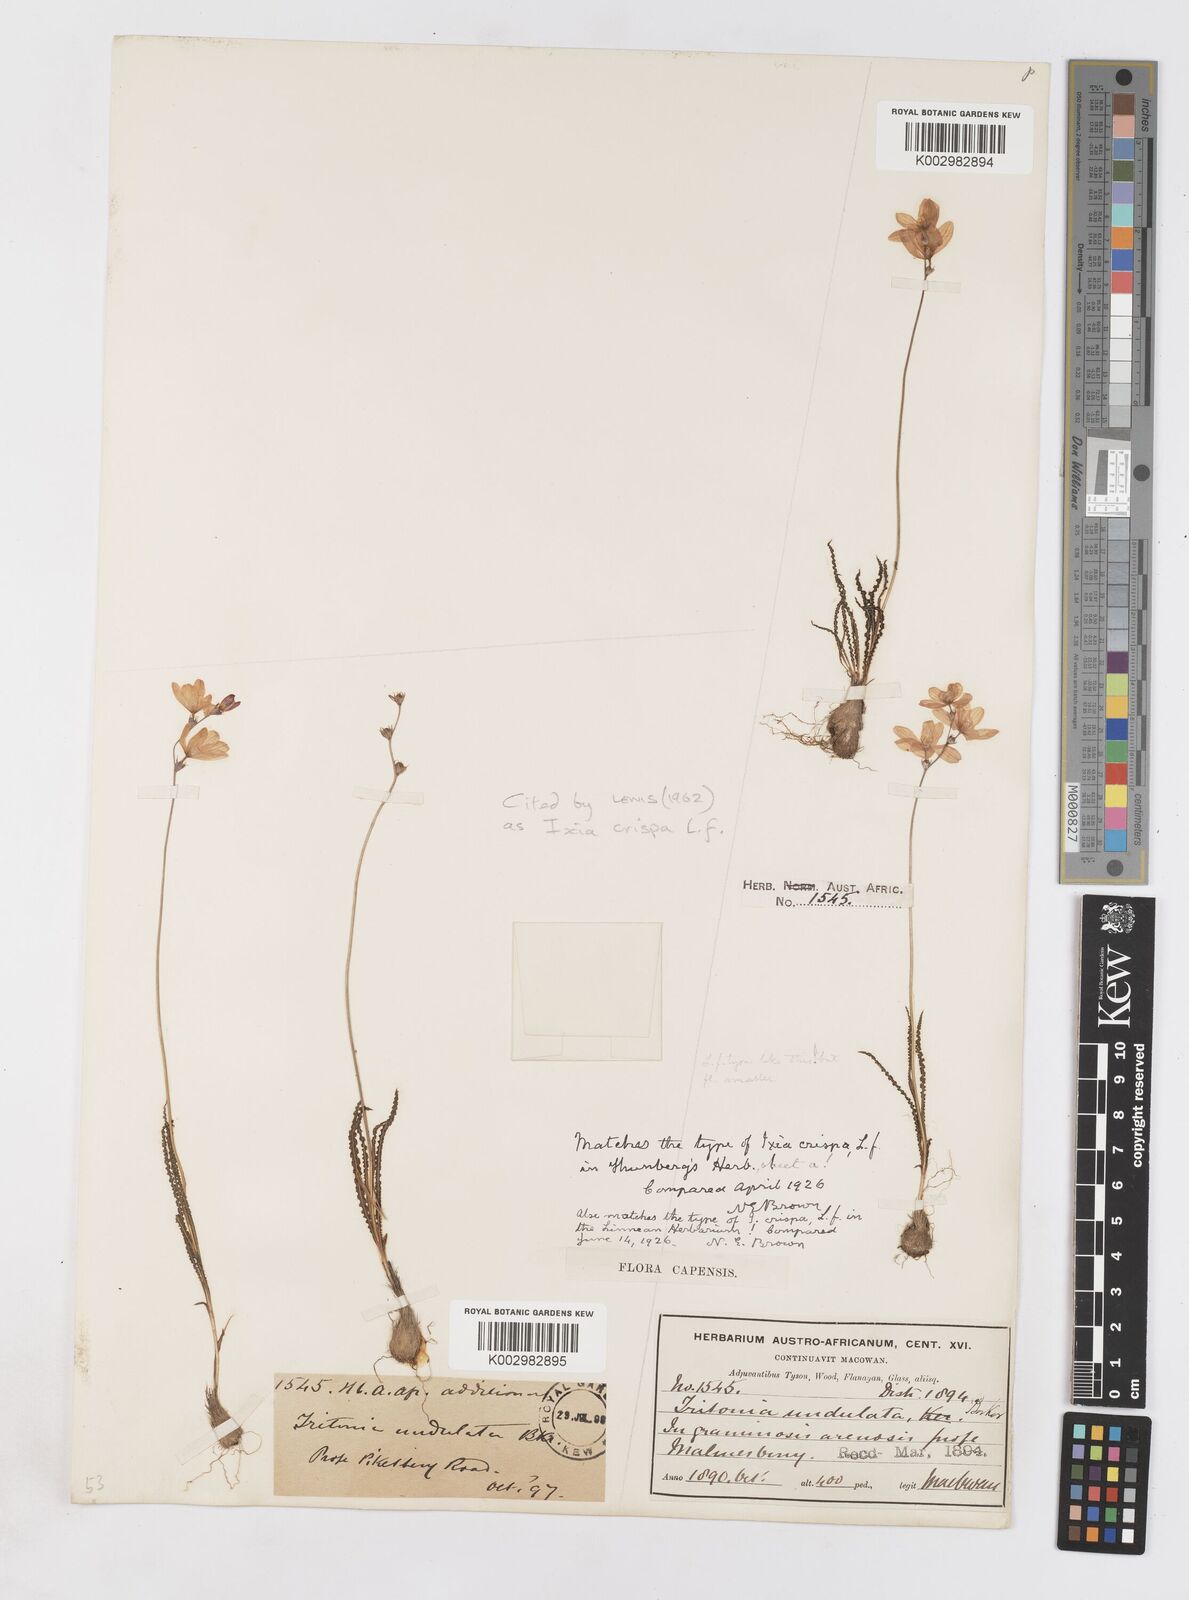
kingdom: Plantae
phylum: Tracheophyta
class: Liliopsida
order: Asparagales
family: Iridaceae
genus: Ixia
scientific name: Ixia erubescens
